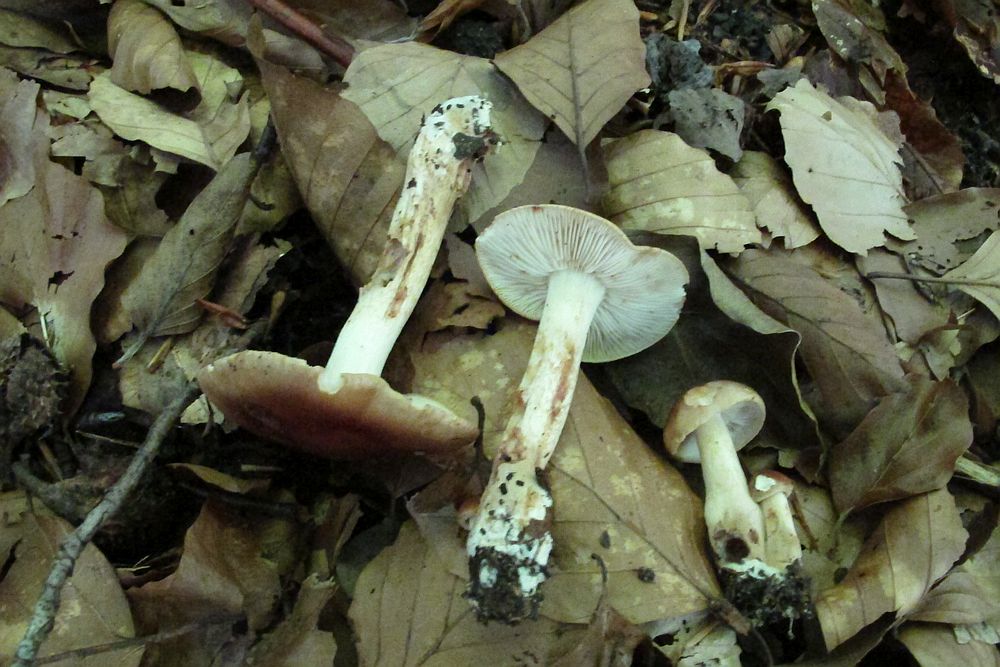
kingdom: Fungi
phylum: Basidiomycota
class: Agaricomycetes
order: Agaricales
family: Tricholomataceae
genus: Tricholoma
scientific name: Tricholoma ustale
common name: sveden ridderhat
